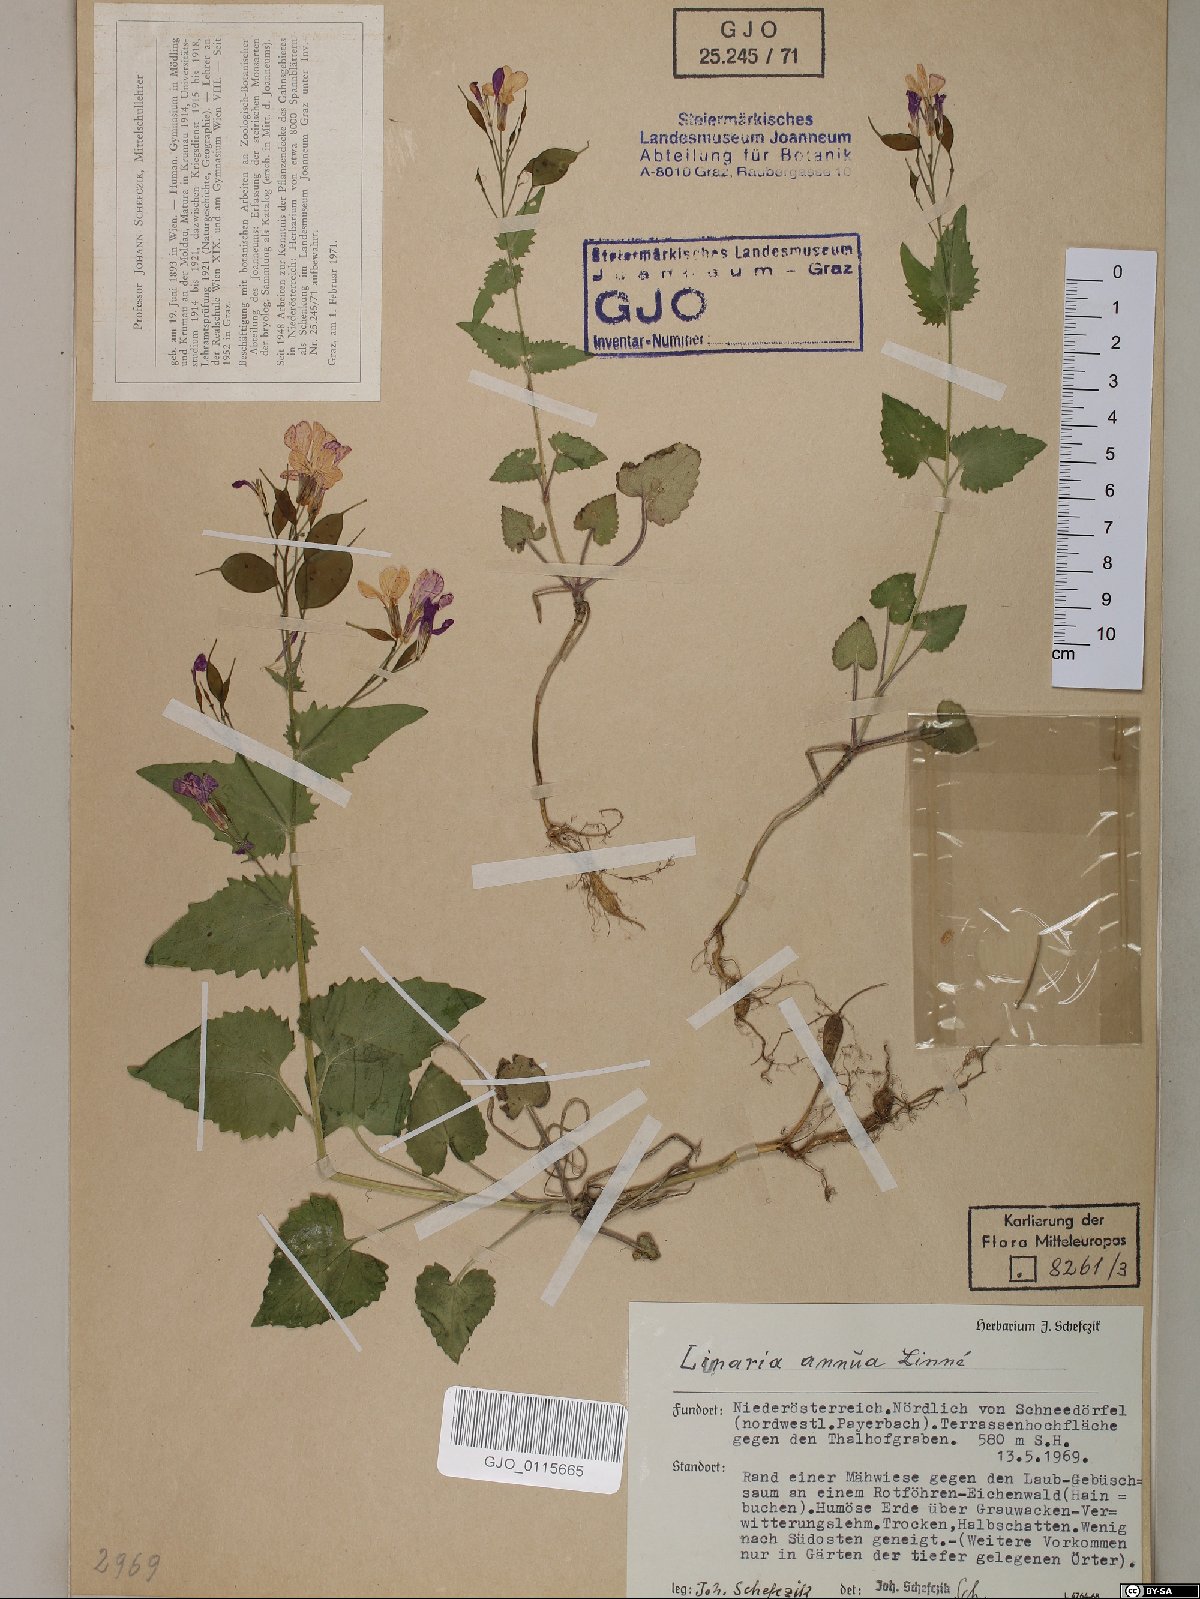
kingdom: Plantae
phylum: Tracheophyta
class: Magnoliopsida
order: Brassicales
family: Brassicaceae
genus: Lunaria
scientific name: Lunaria annua
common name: Honesty
